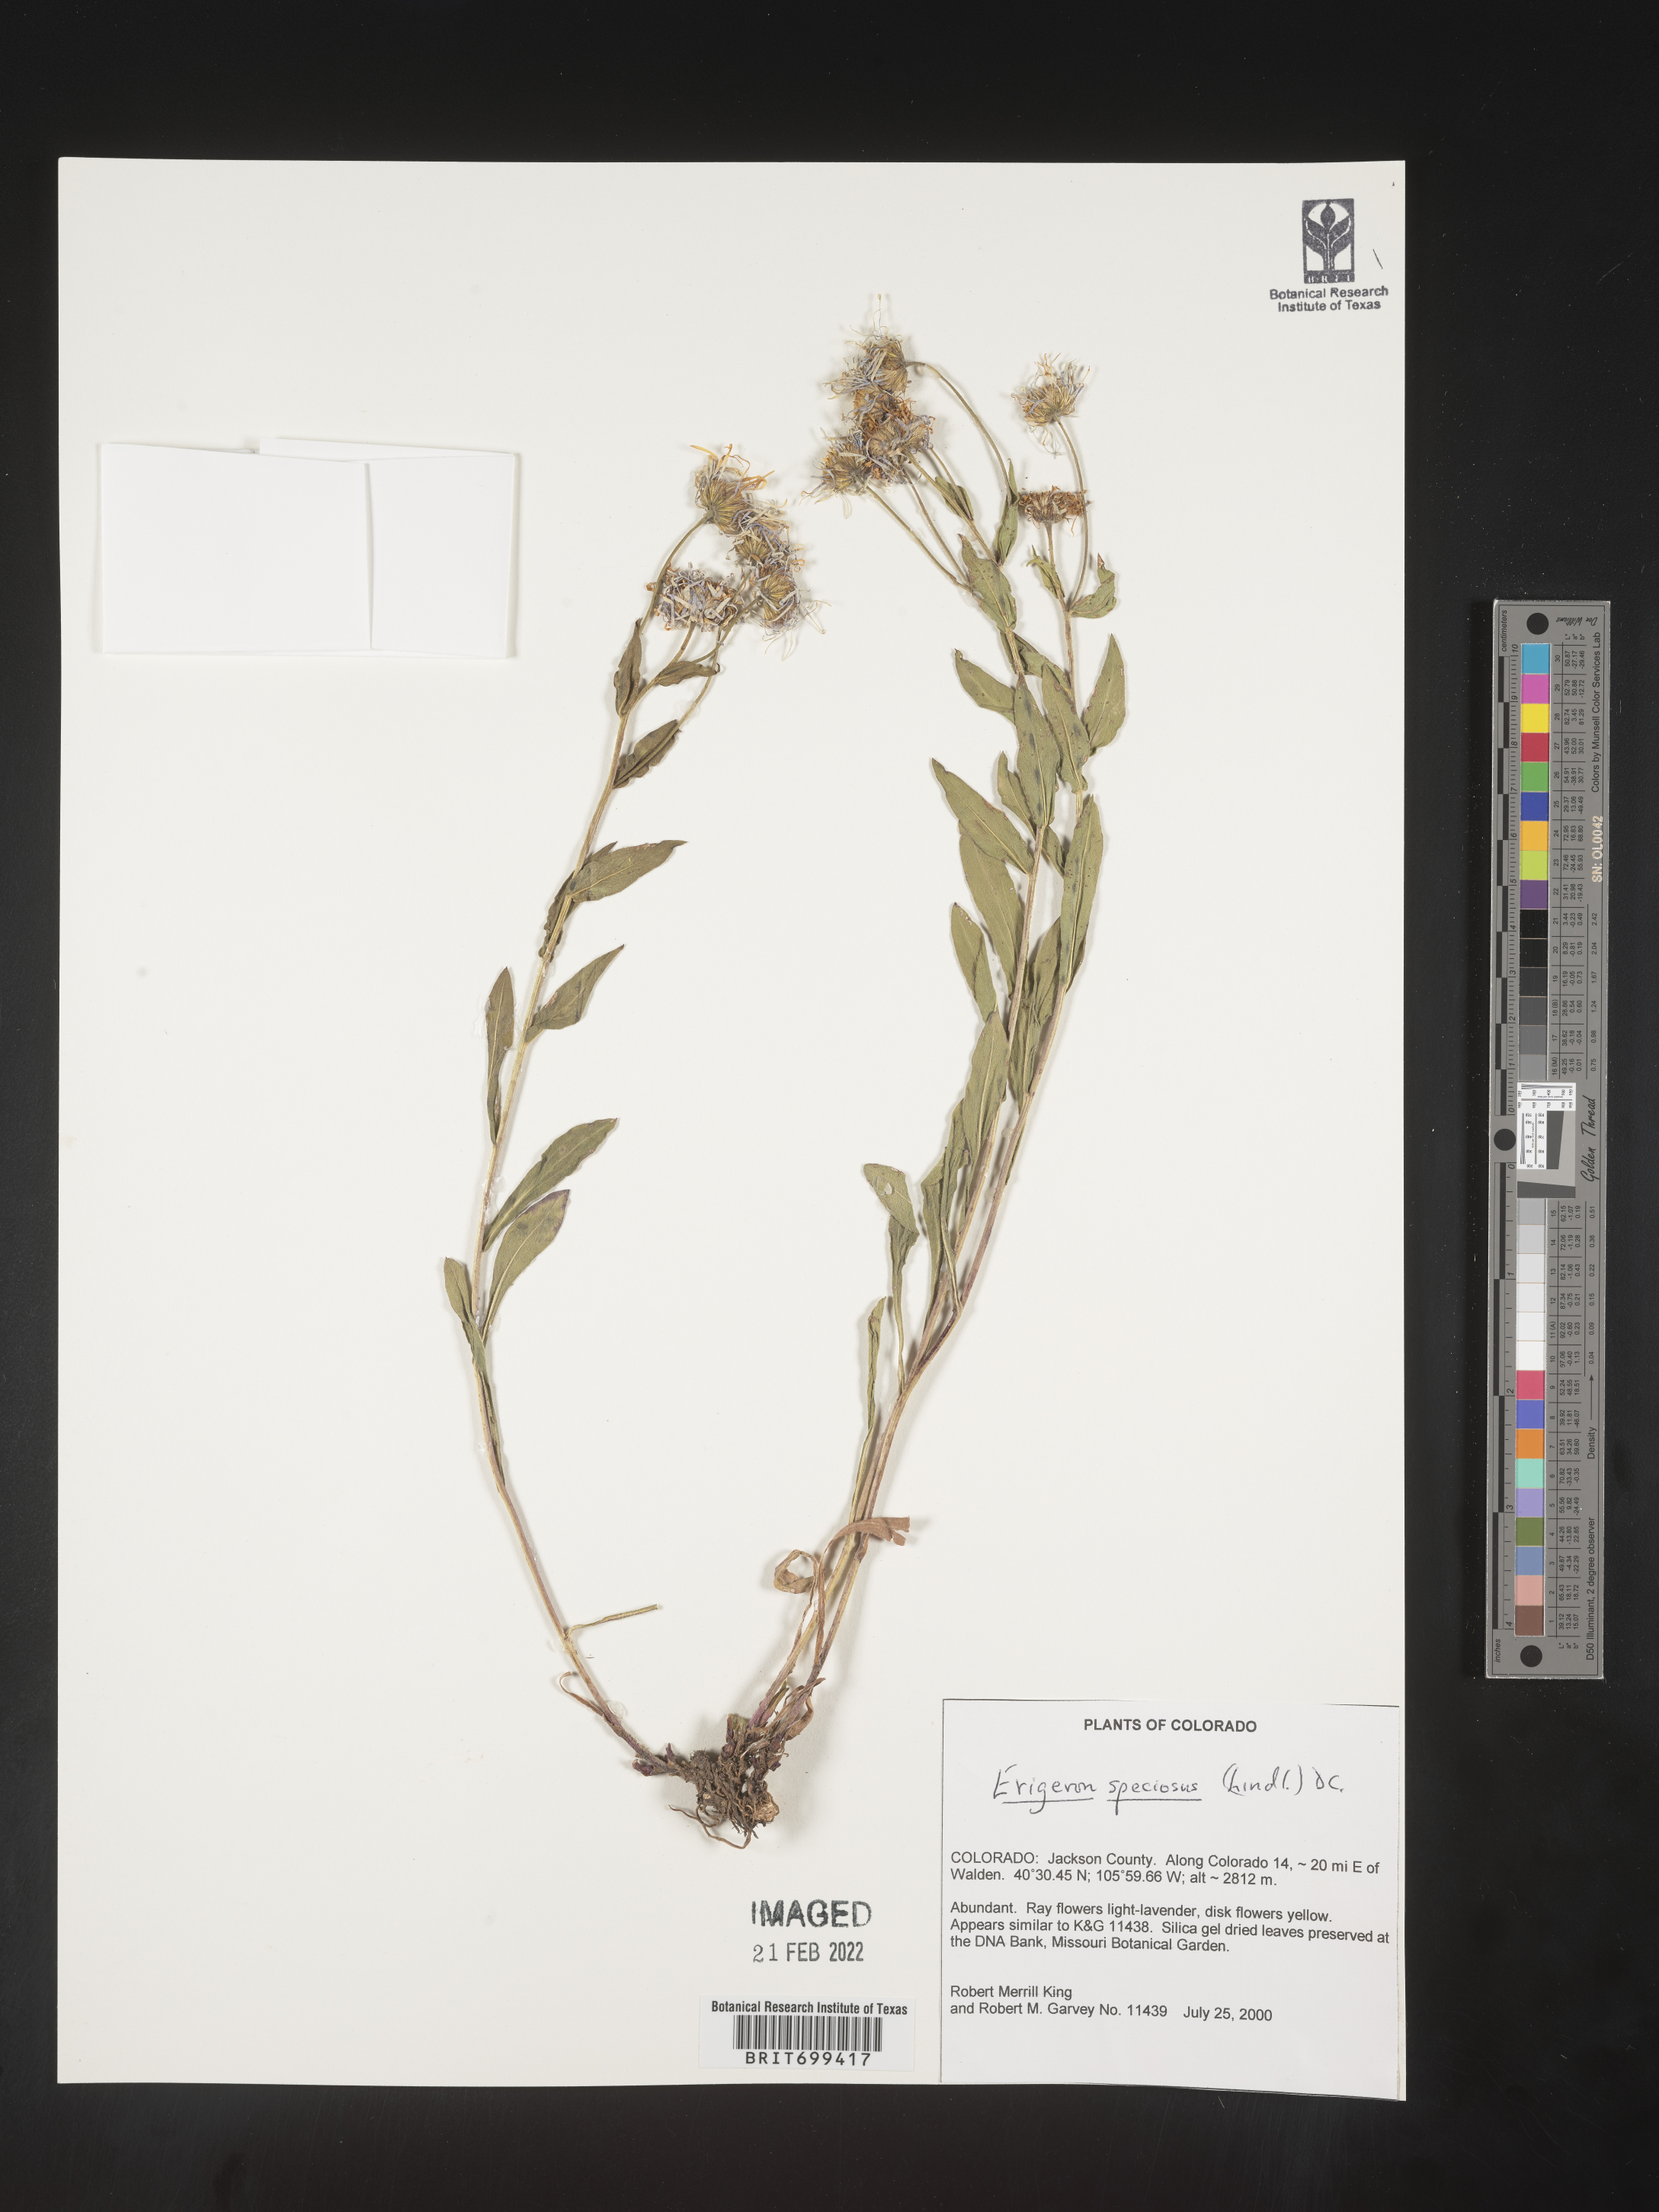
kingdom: Plantae
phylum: Tracheophyta
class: Magnoliopsida
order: Asterales
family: Asteraceae
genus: Erigeron
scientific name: Erigeron speciosus
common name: Aspen fleabane
